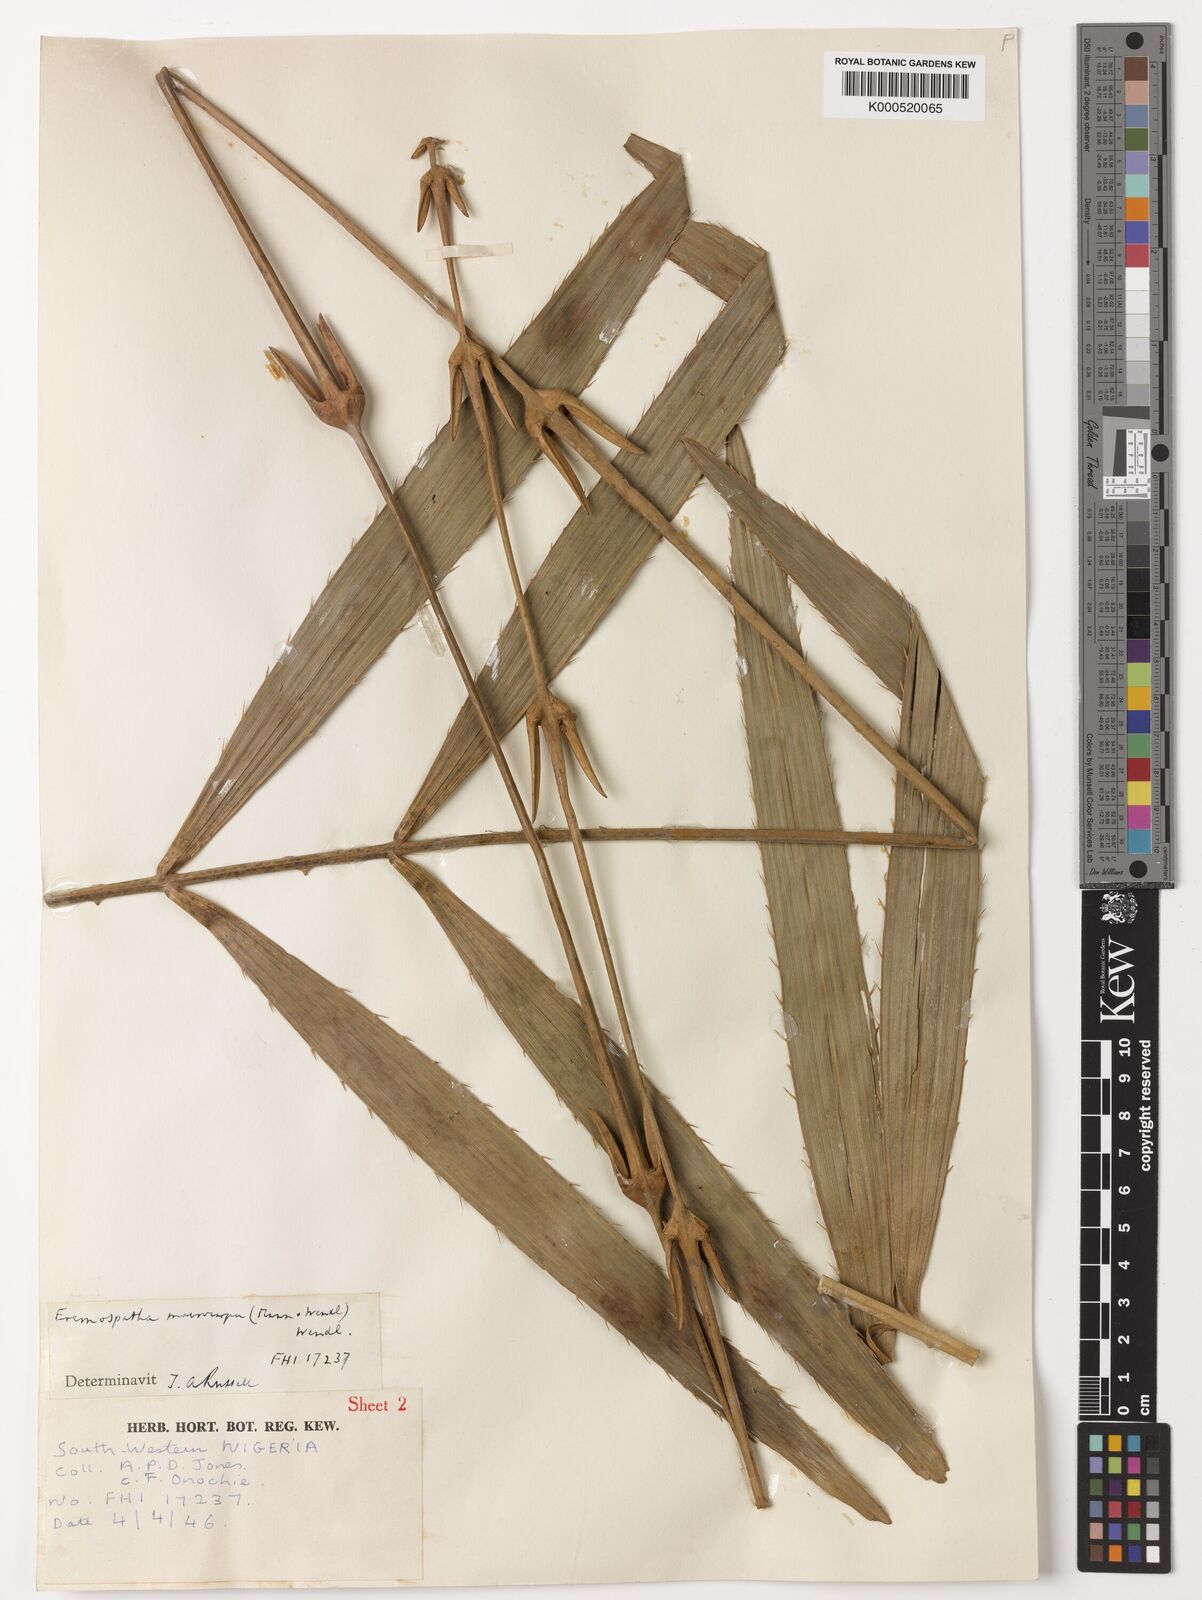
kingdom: Plantae
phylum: Tracheophyta
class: Liliopsida
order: Arecales
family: Arecaceae
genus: Eremospatha
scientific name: Eremospatha
